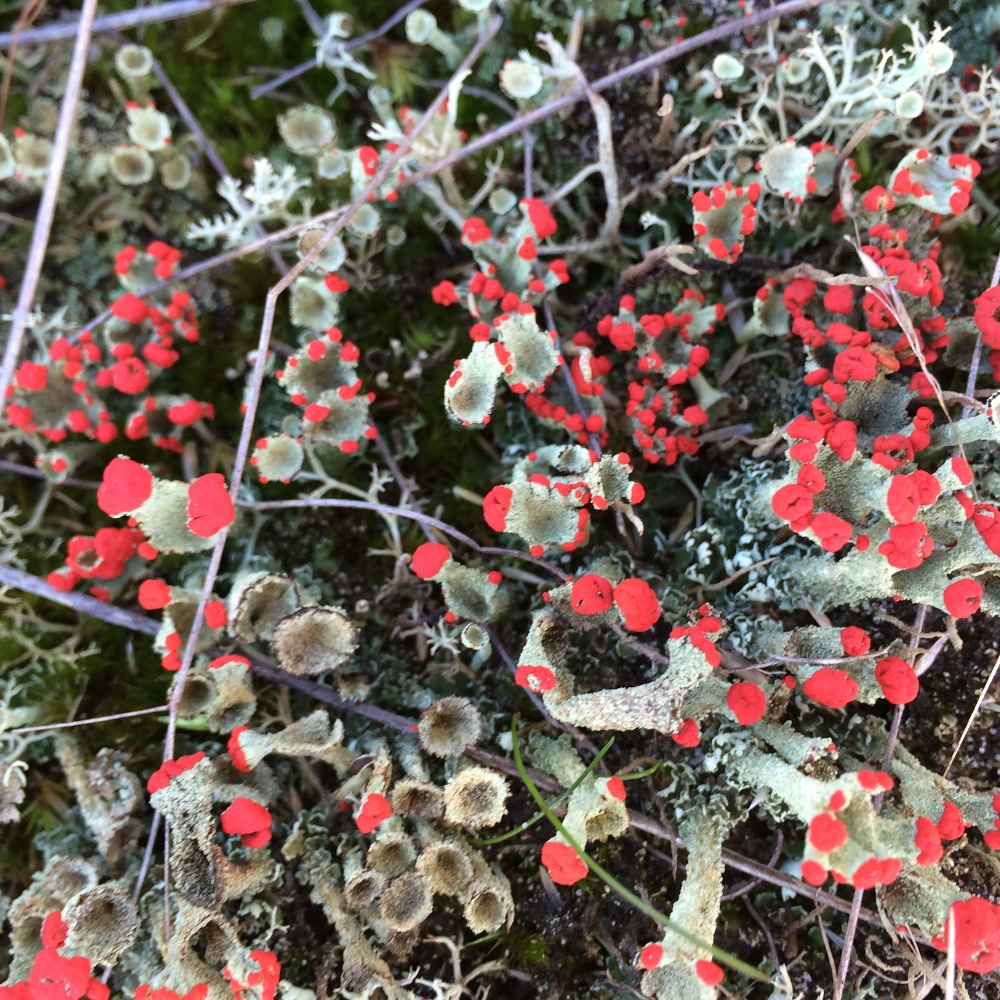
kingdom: Fungi
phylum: Ascomycota
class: Lecanoromycetes
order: Lecanorales
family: Cladoniaceae
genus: Cladonia
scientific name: Cladonia diversa
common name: rød bægerlav
